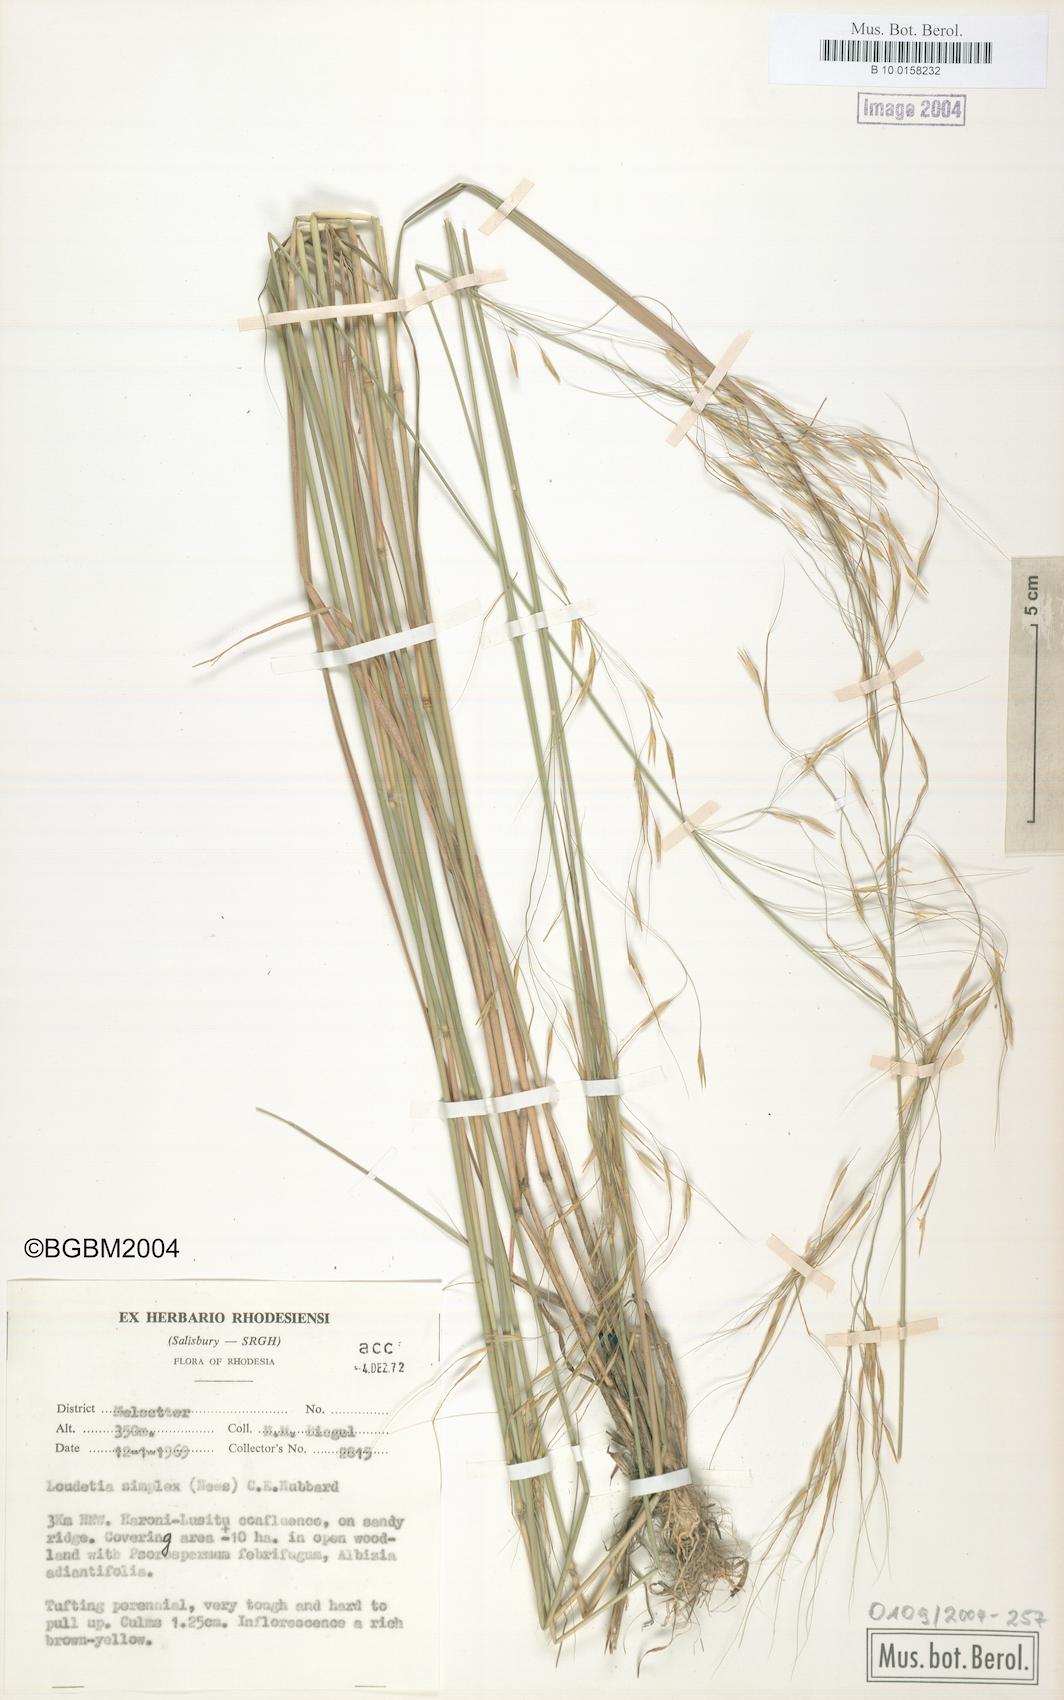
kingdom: Plantae
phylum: Tracheophyta
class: Liliopsida
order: Poales
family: Poaceae
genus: Loudetia
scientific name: Loudetia simplex
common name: Common russet grass
